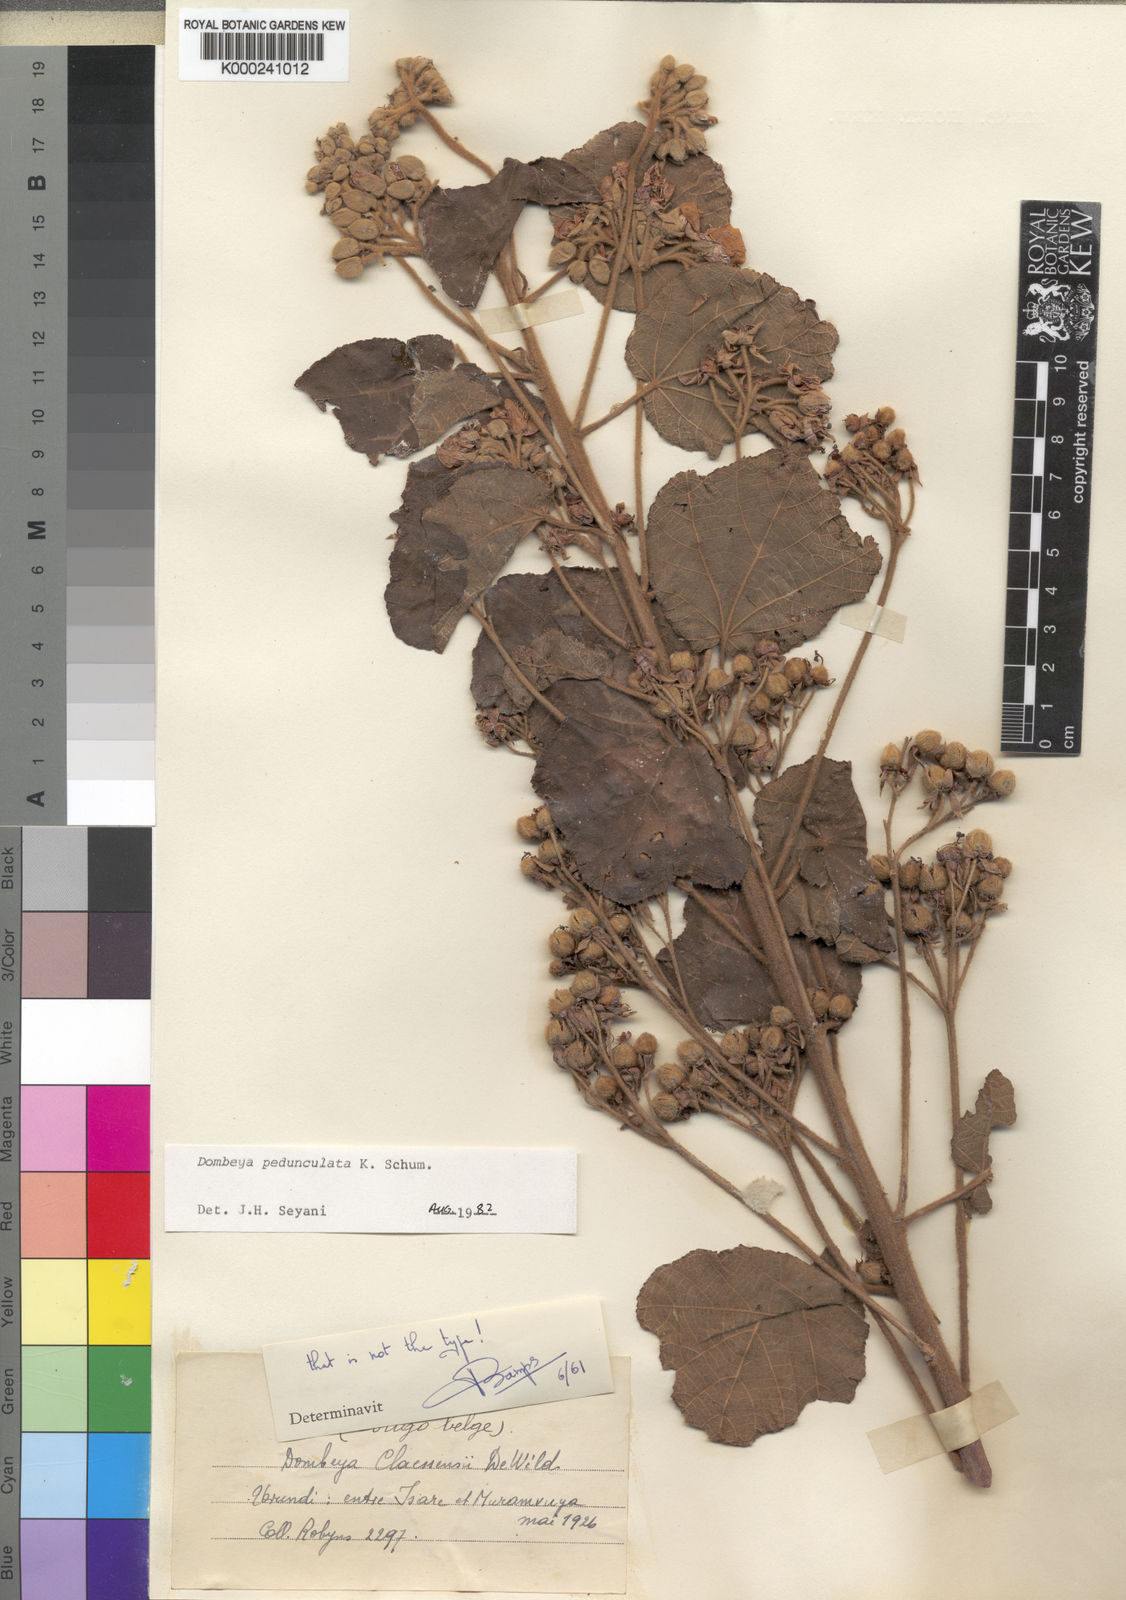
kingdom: Plantae
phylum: Tracheophyta
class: Magnoliopsida
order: Malvales
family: Malvaceae
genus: Dombeya
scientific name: Dombeya buettneri
